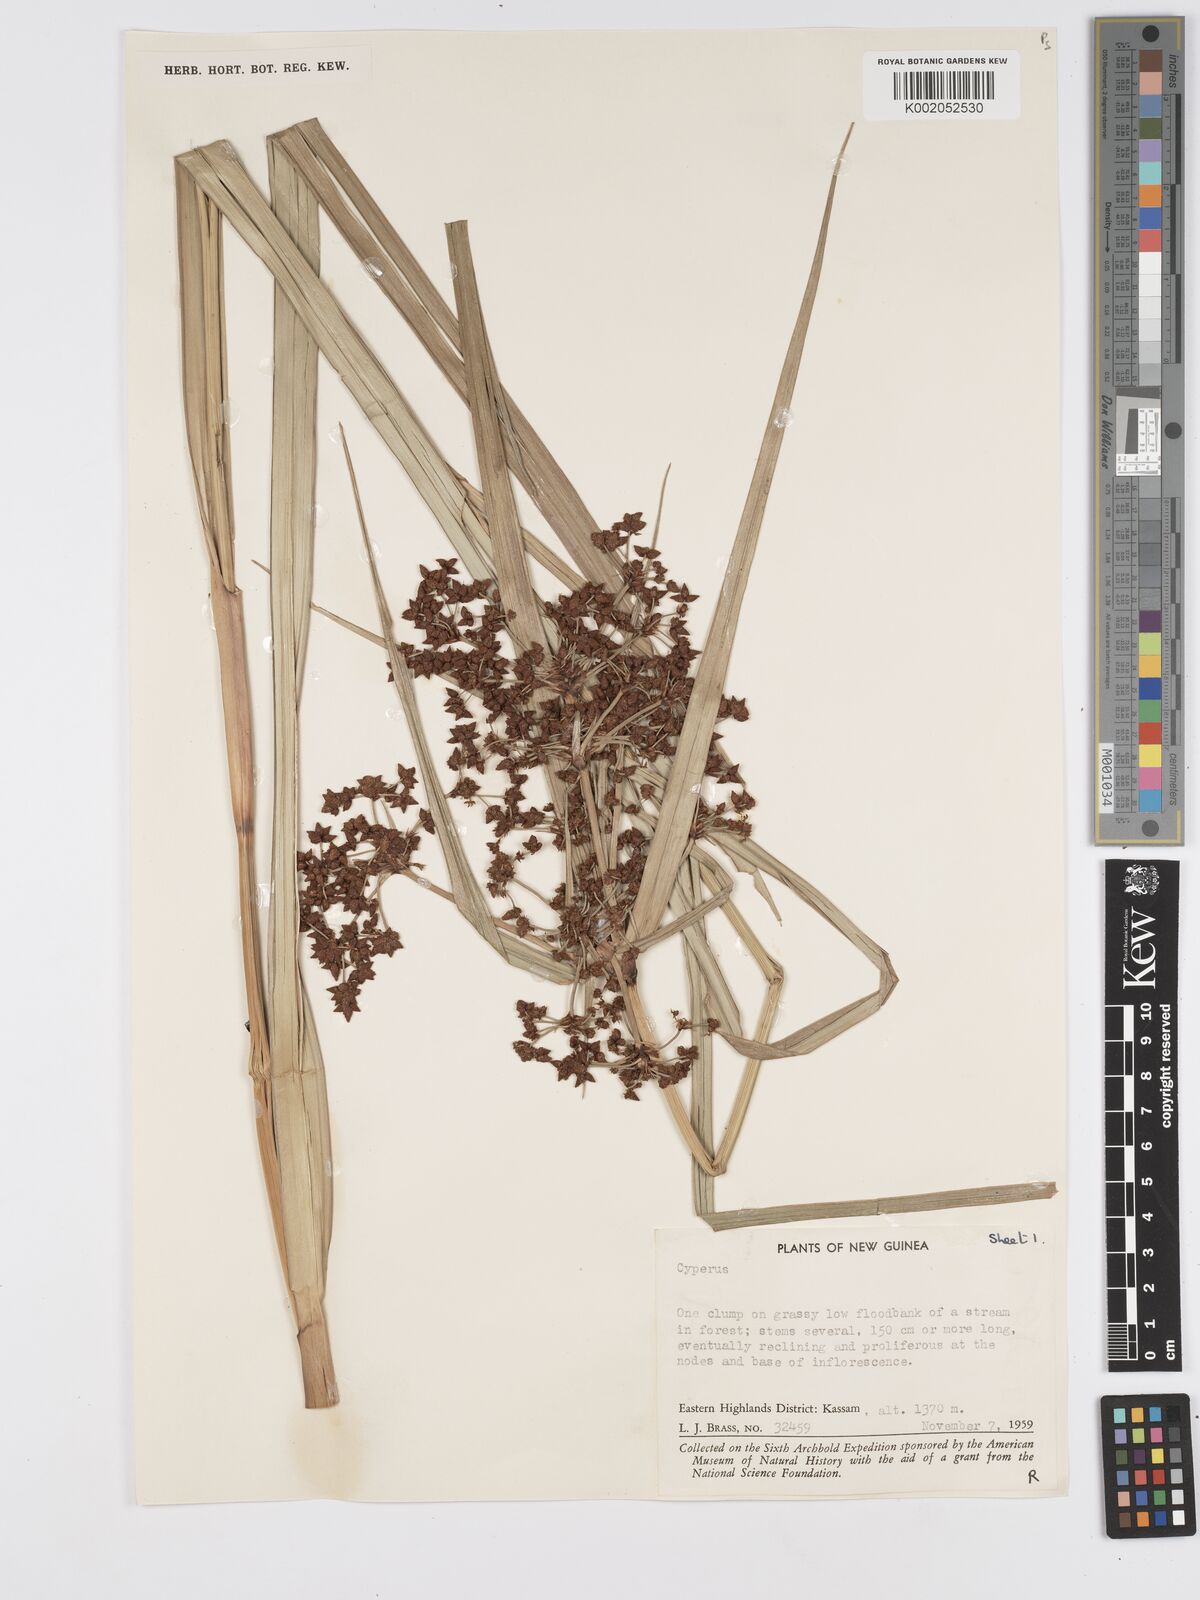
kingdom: Plantae
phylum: Tracheophyta
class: Liliopsida
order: Poales
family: Cyperaceae
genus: Scirpus
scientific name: Scirpus ternatanus
